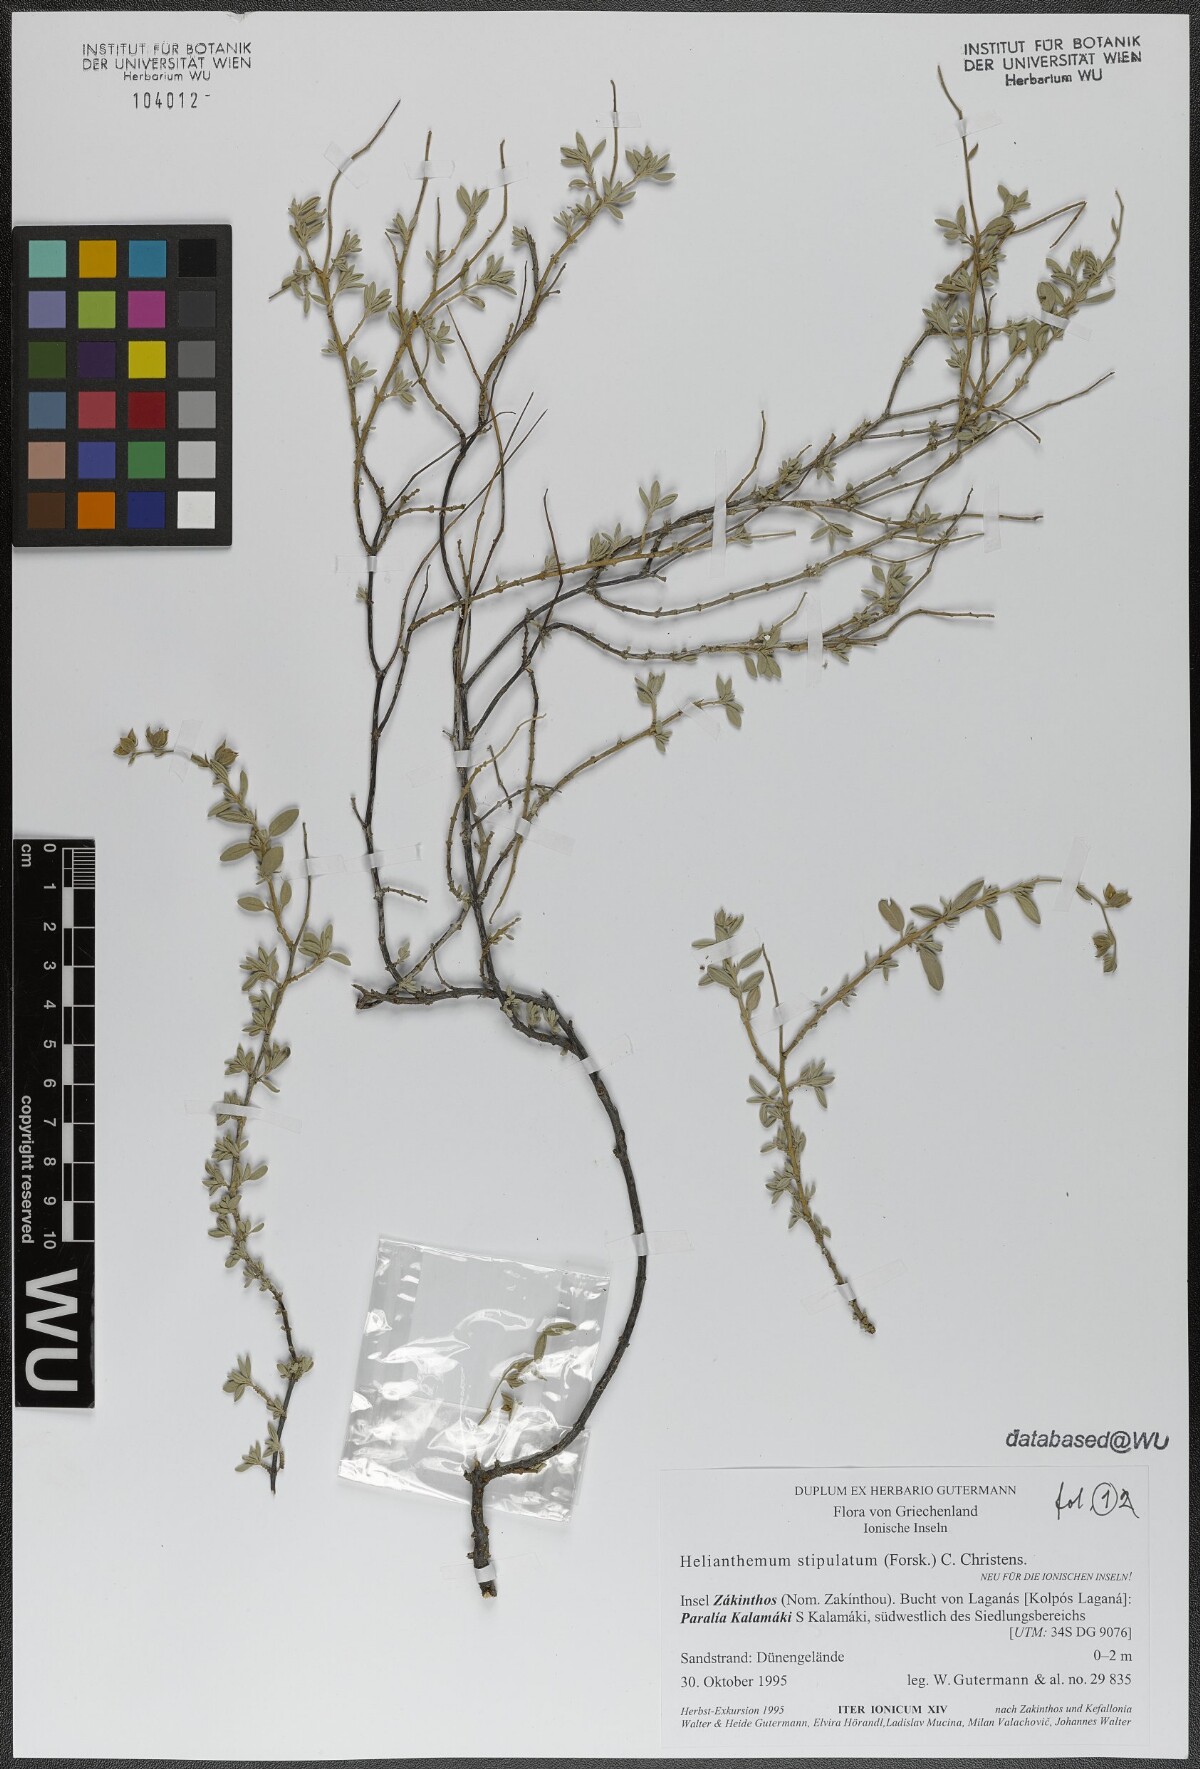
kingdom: Plantae
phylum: Tracheophyta
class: Magnoliopsida
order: Malvales
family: Cistaceae
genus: Helianthemum
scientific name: Helianthemum stipulatum
